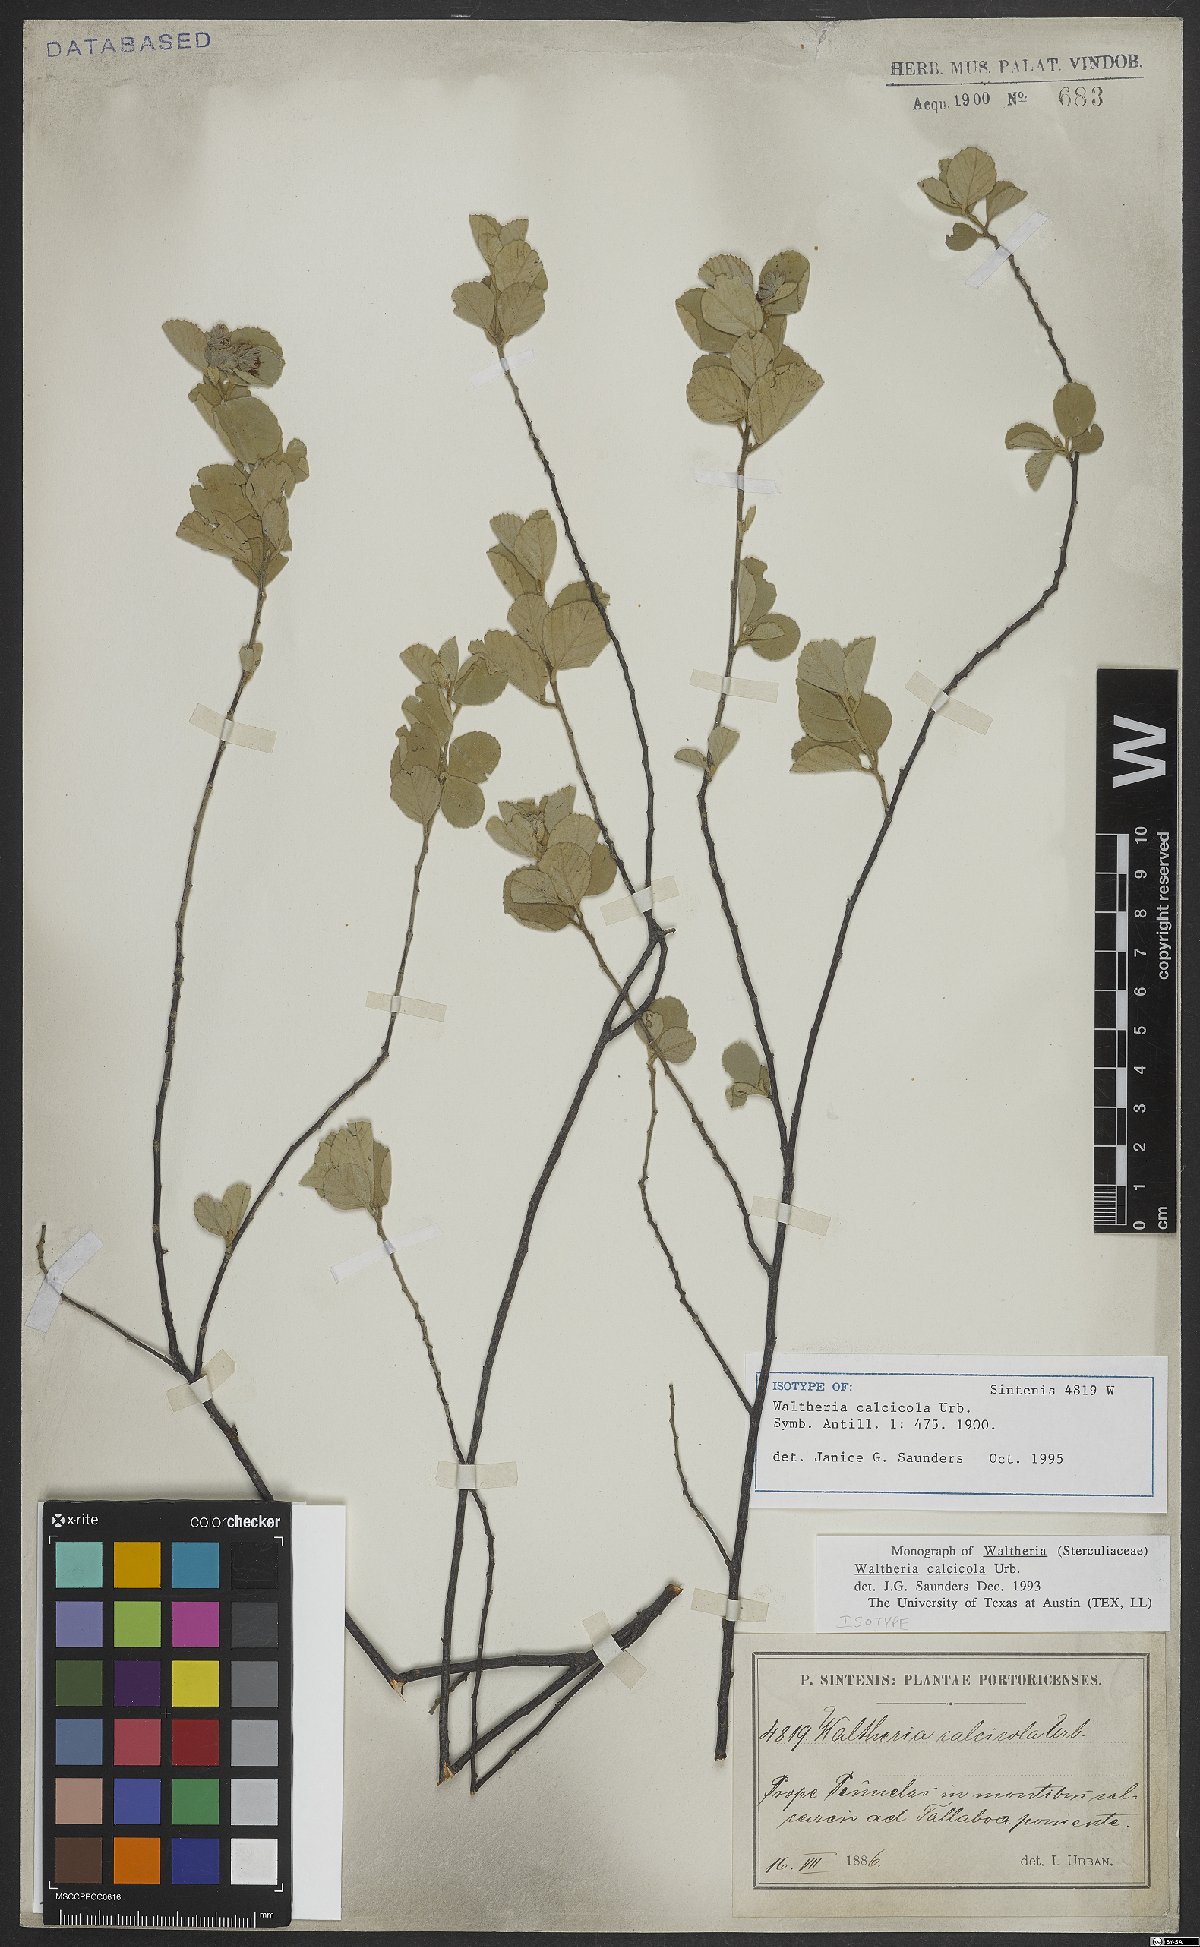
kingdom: Plantae
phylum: Tracheophyta
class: Magnoliopsida
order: Malvales
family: Malvaceae
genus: Waltheria
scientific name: Waltheria calcicola
